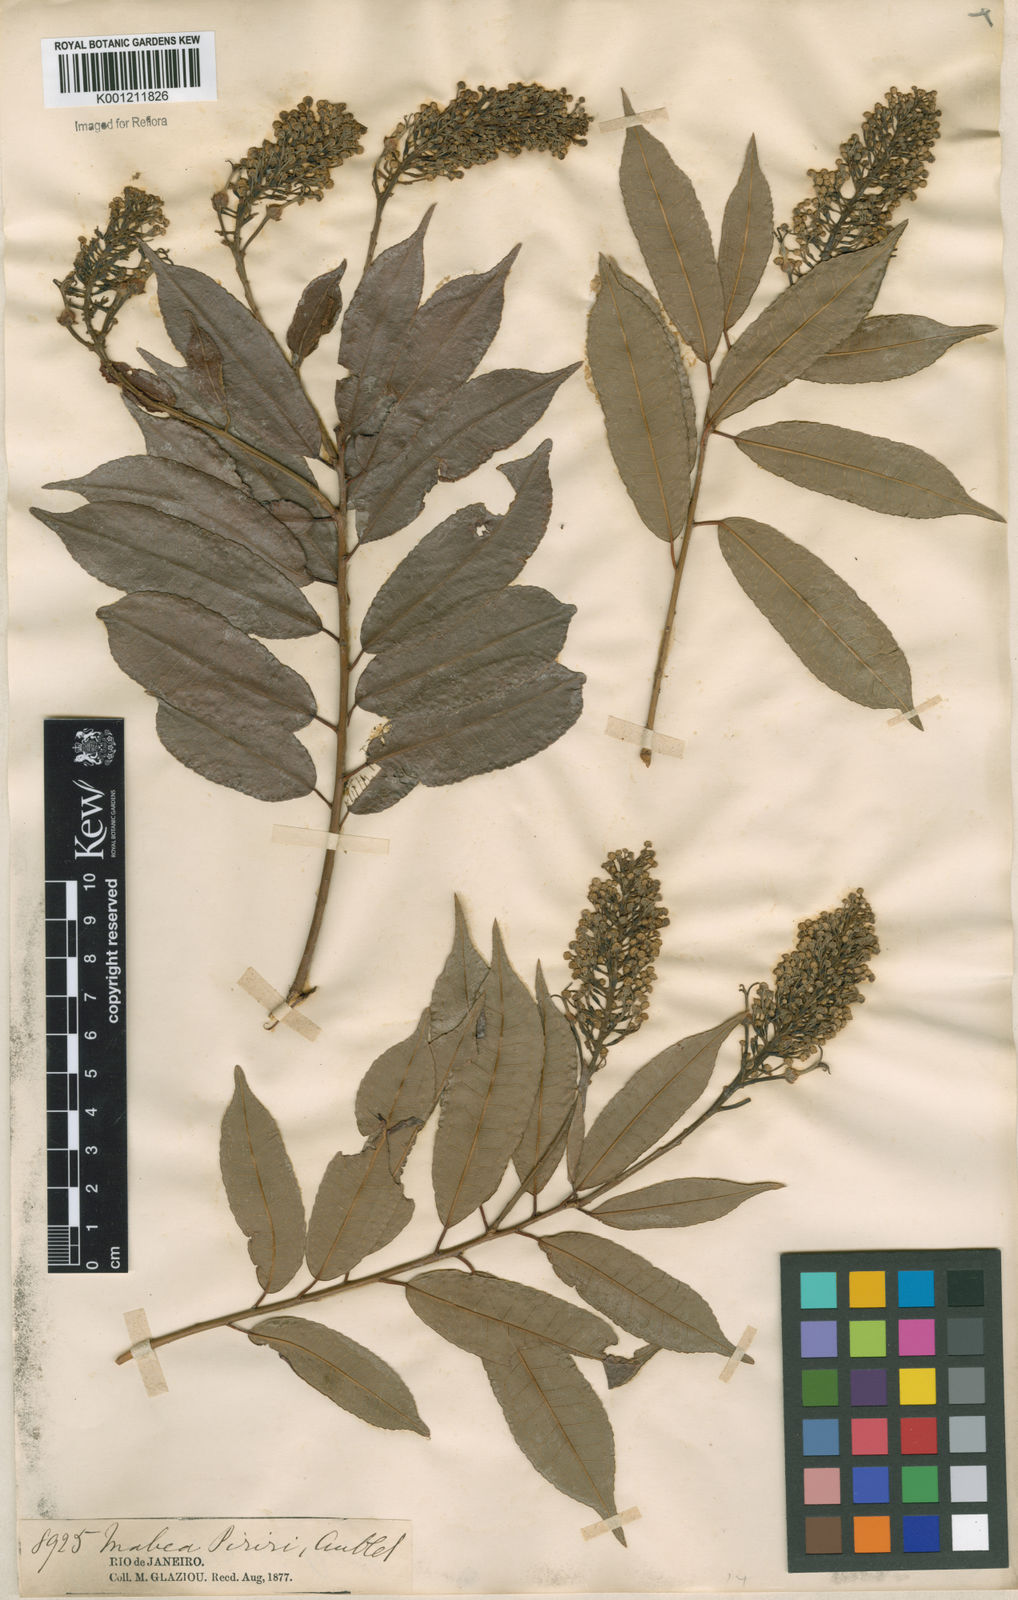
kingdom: Plantae
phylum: Tracheophyta
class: Magnoliopsida
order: Malpighiales
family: Euphorbiaceae
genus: Mabea
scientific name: Mabea piriri
